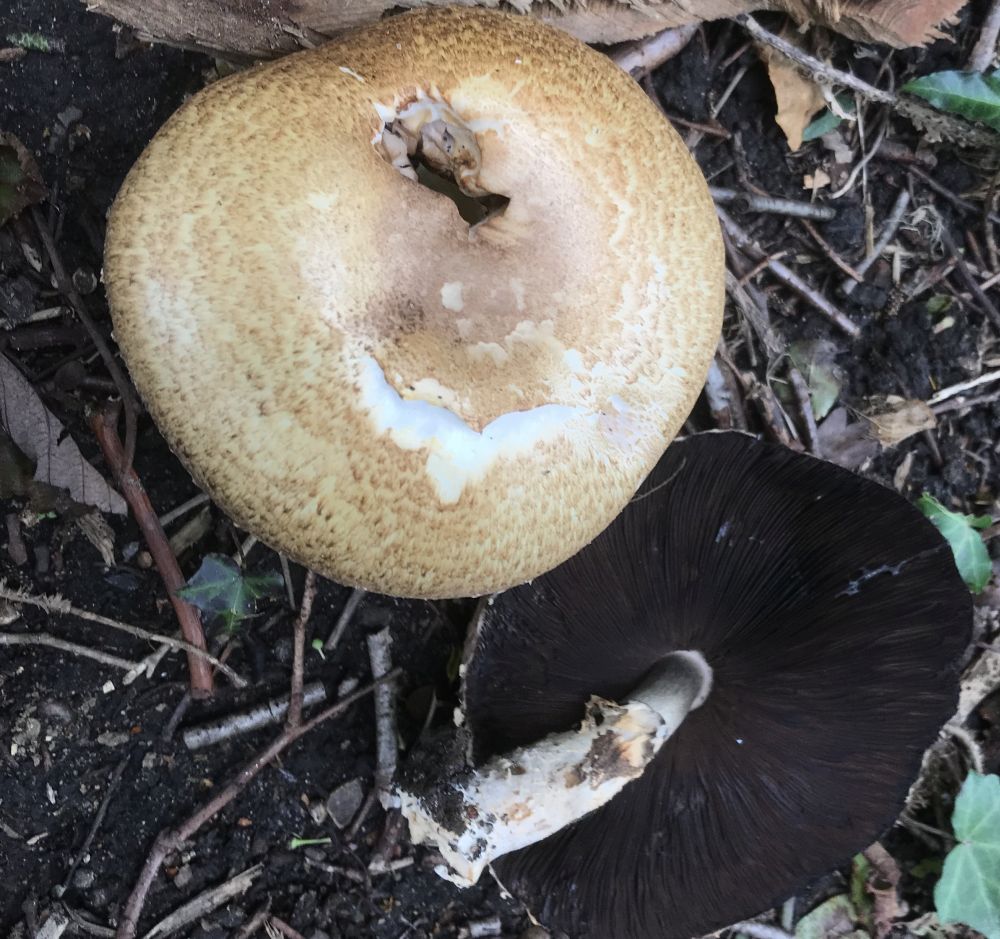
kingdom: Fungi
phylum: Basidiomycota
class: Agaricomycetes
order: Agaricales
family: Agaricaceae
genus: Agaricus
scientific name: Agaricus augustus
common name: prægtig champignon
